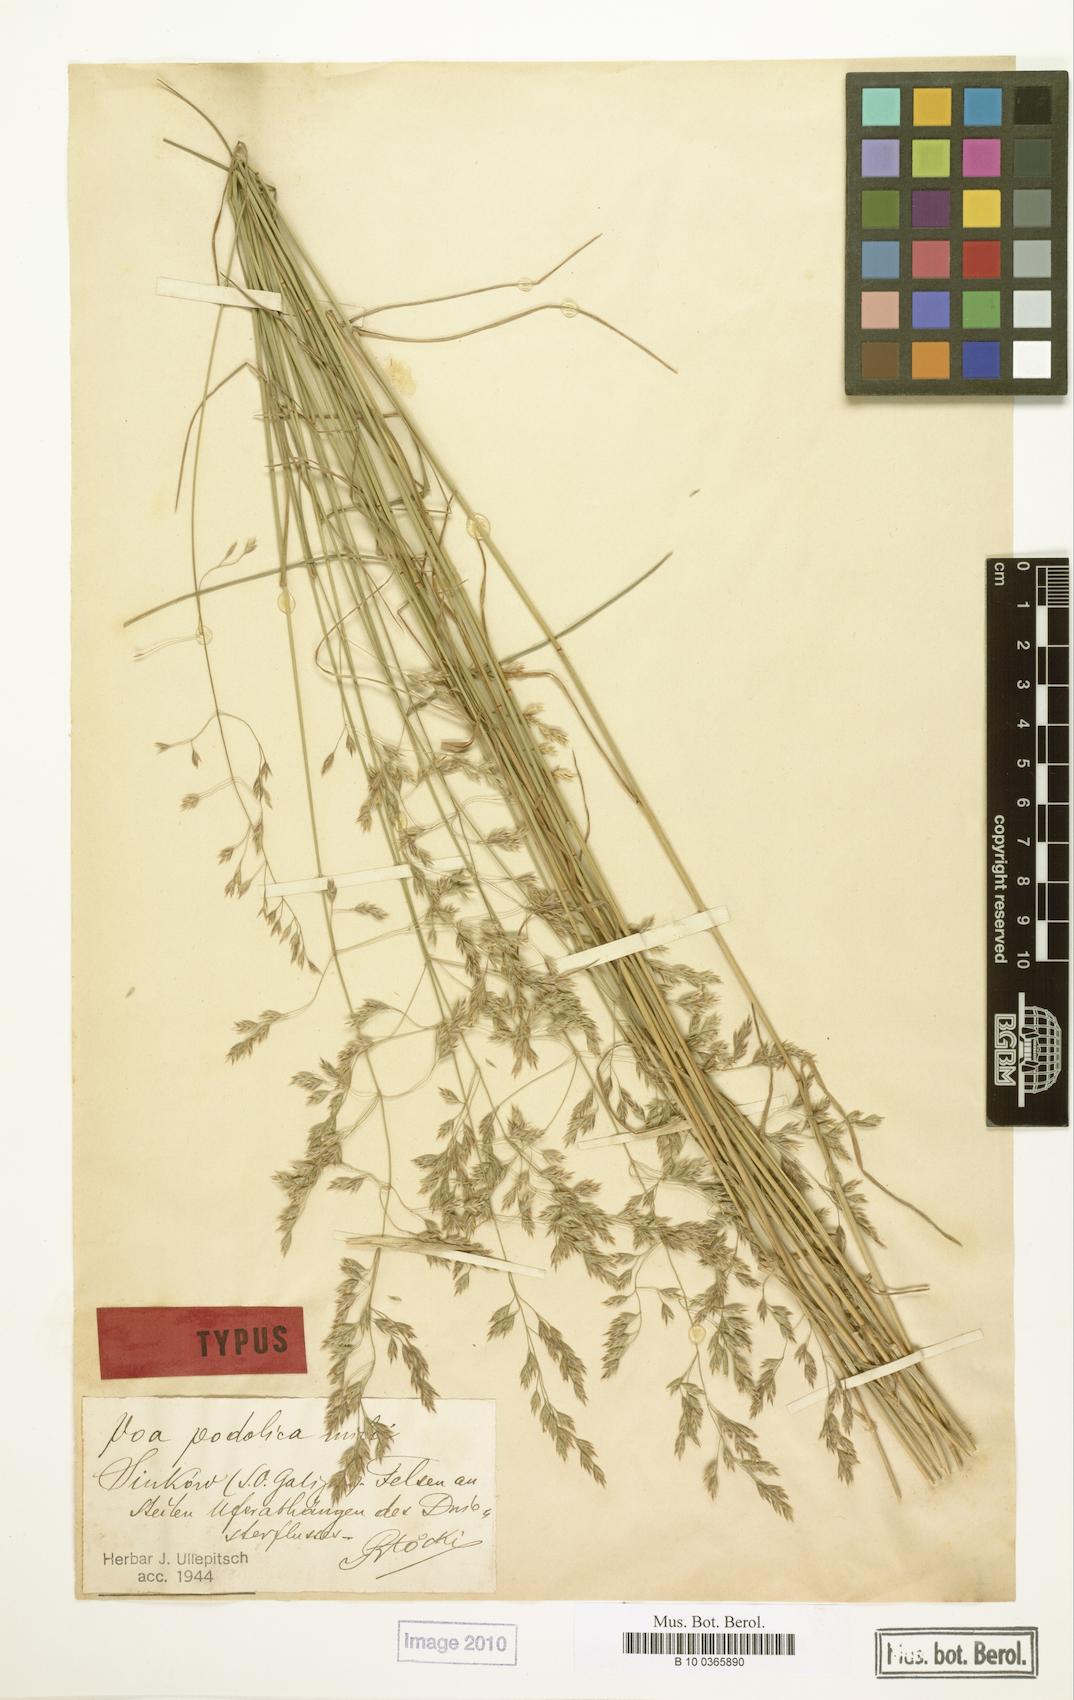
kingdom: Plantae
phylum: Tracheophyta
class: Liliopsida
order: Poales
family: Poaceae
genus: Poa
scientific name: Poa versicolor
